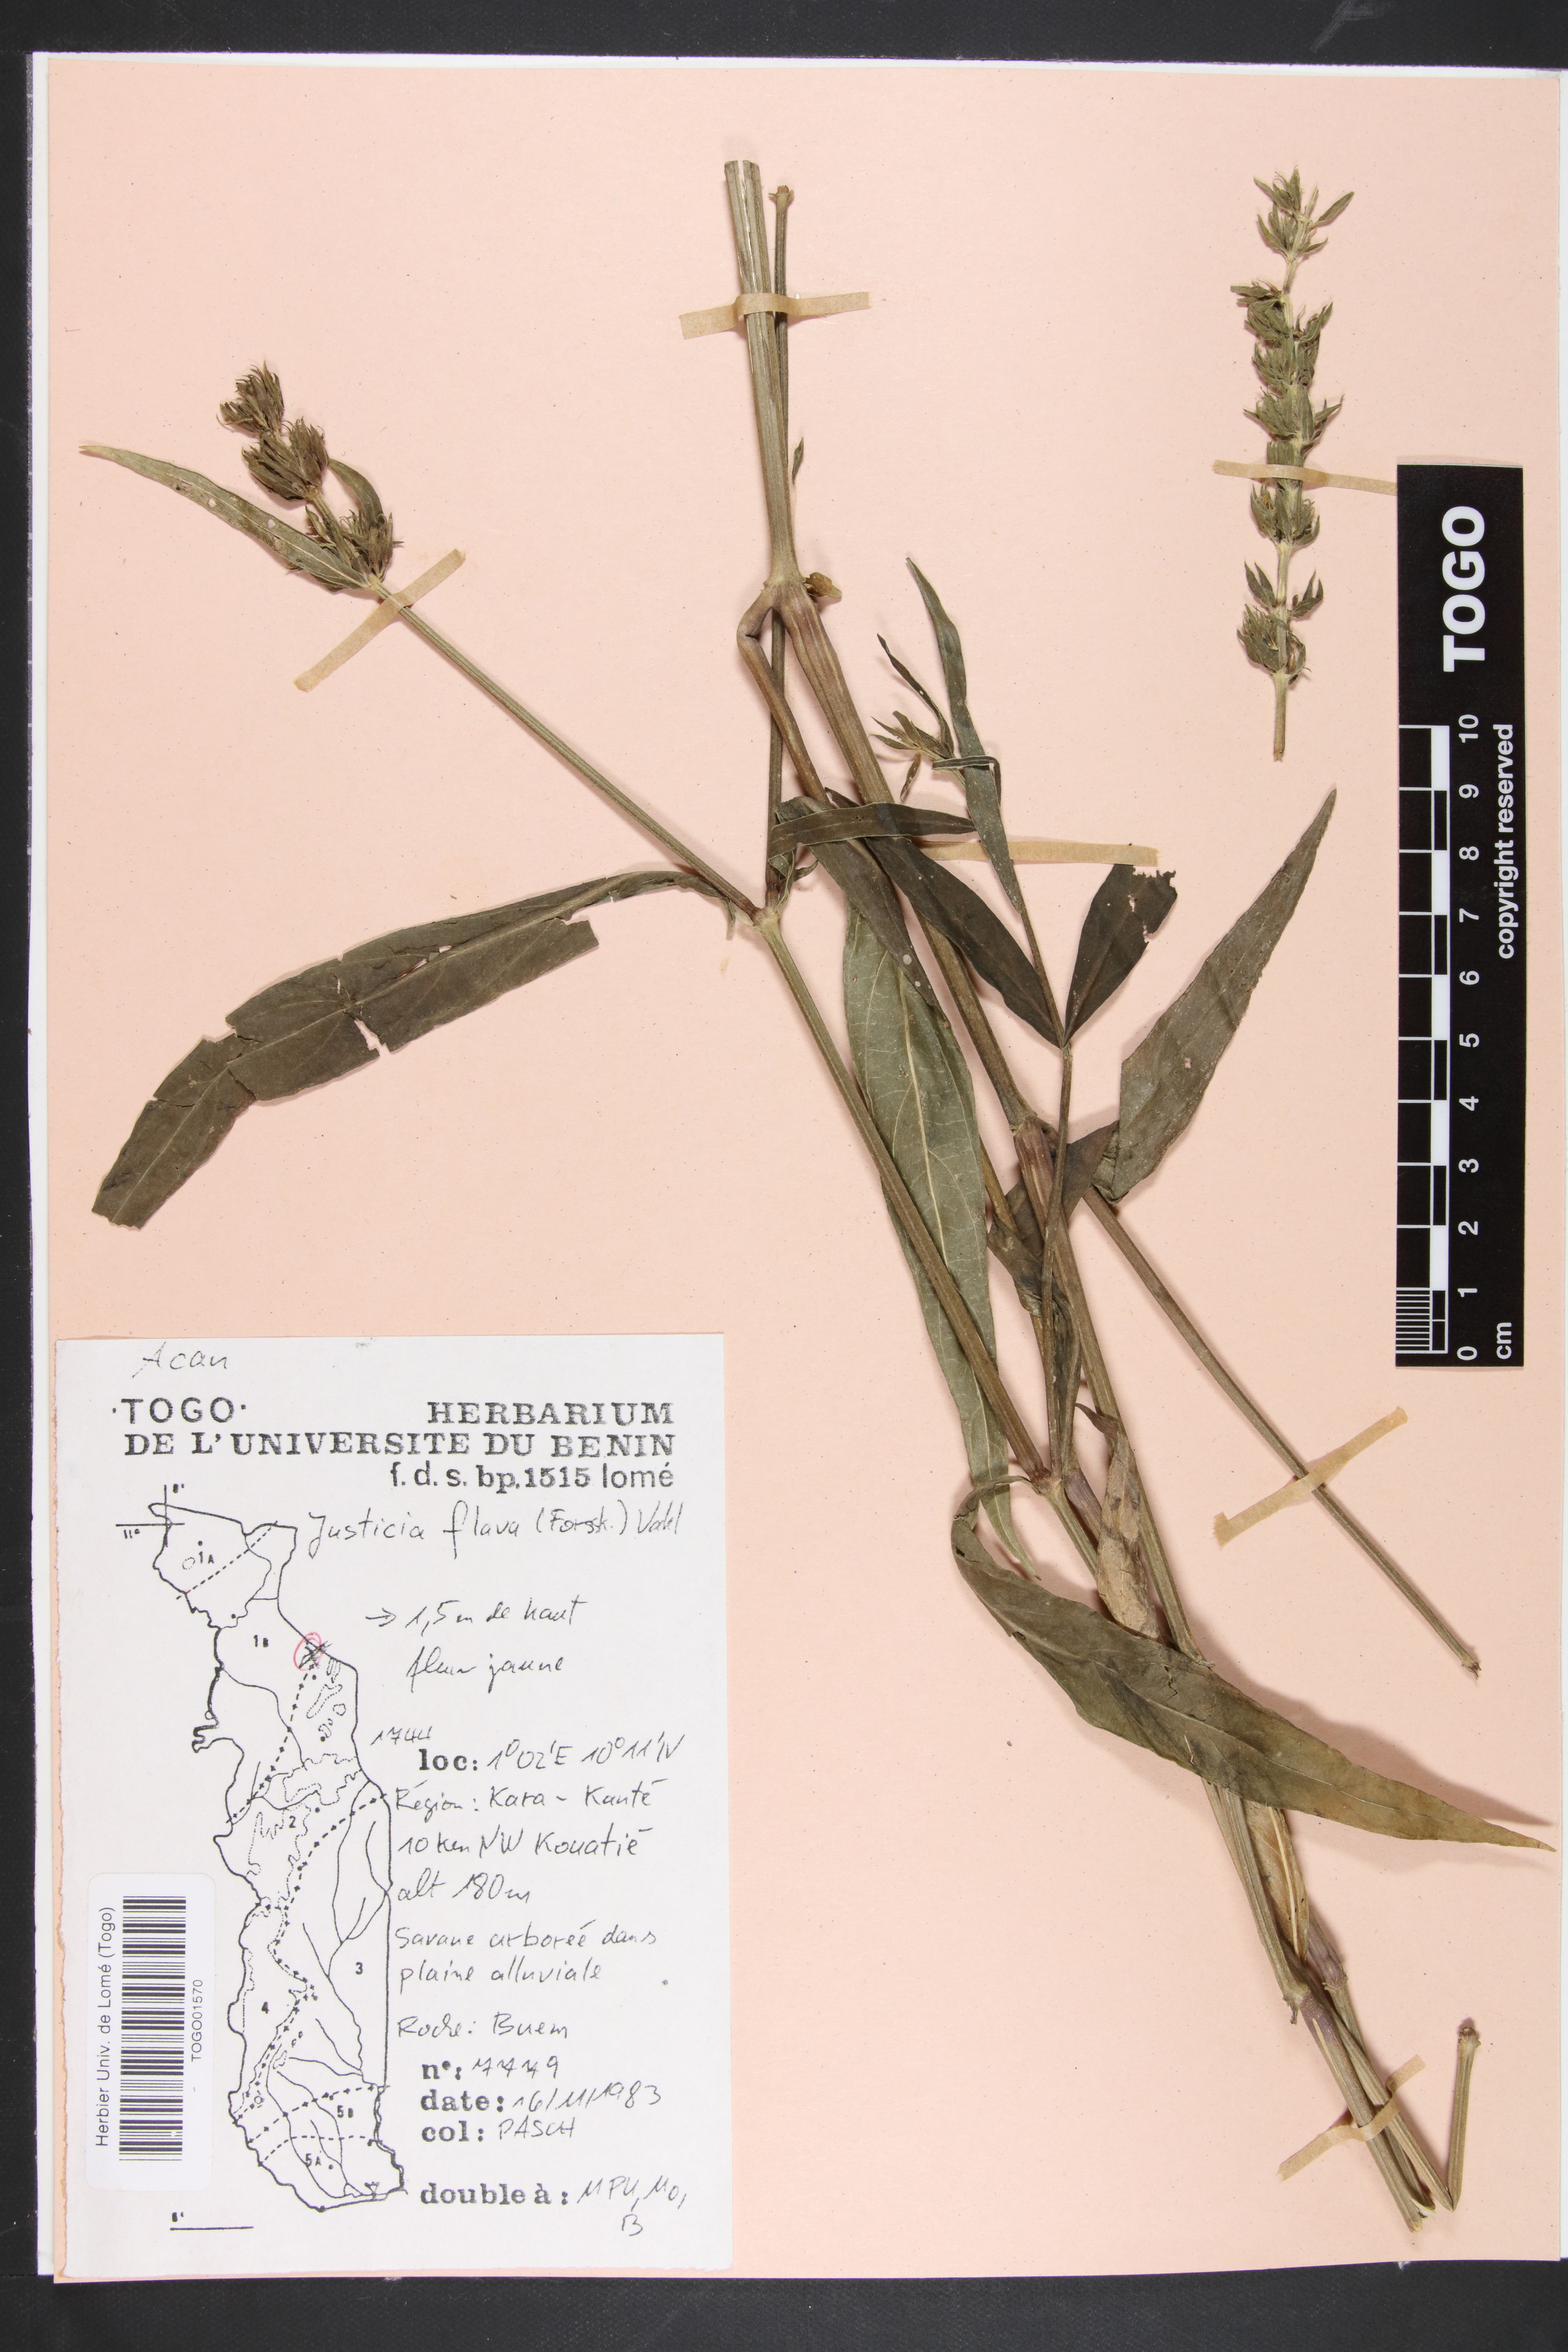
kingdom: Plantae
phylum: Tracheophyta
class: Magnoliopsida
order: Lamiales
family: Acanthaceae
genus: Justicia
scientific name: Justicia flava
